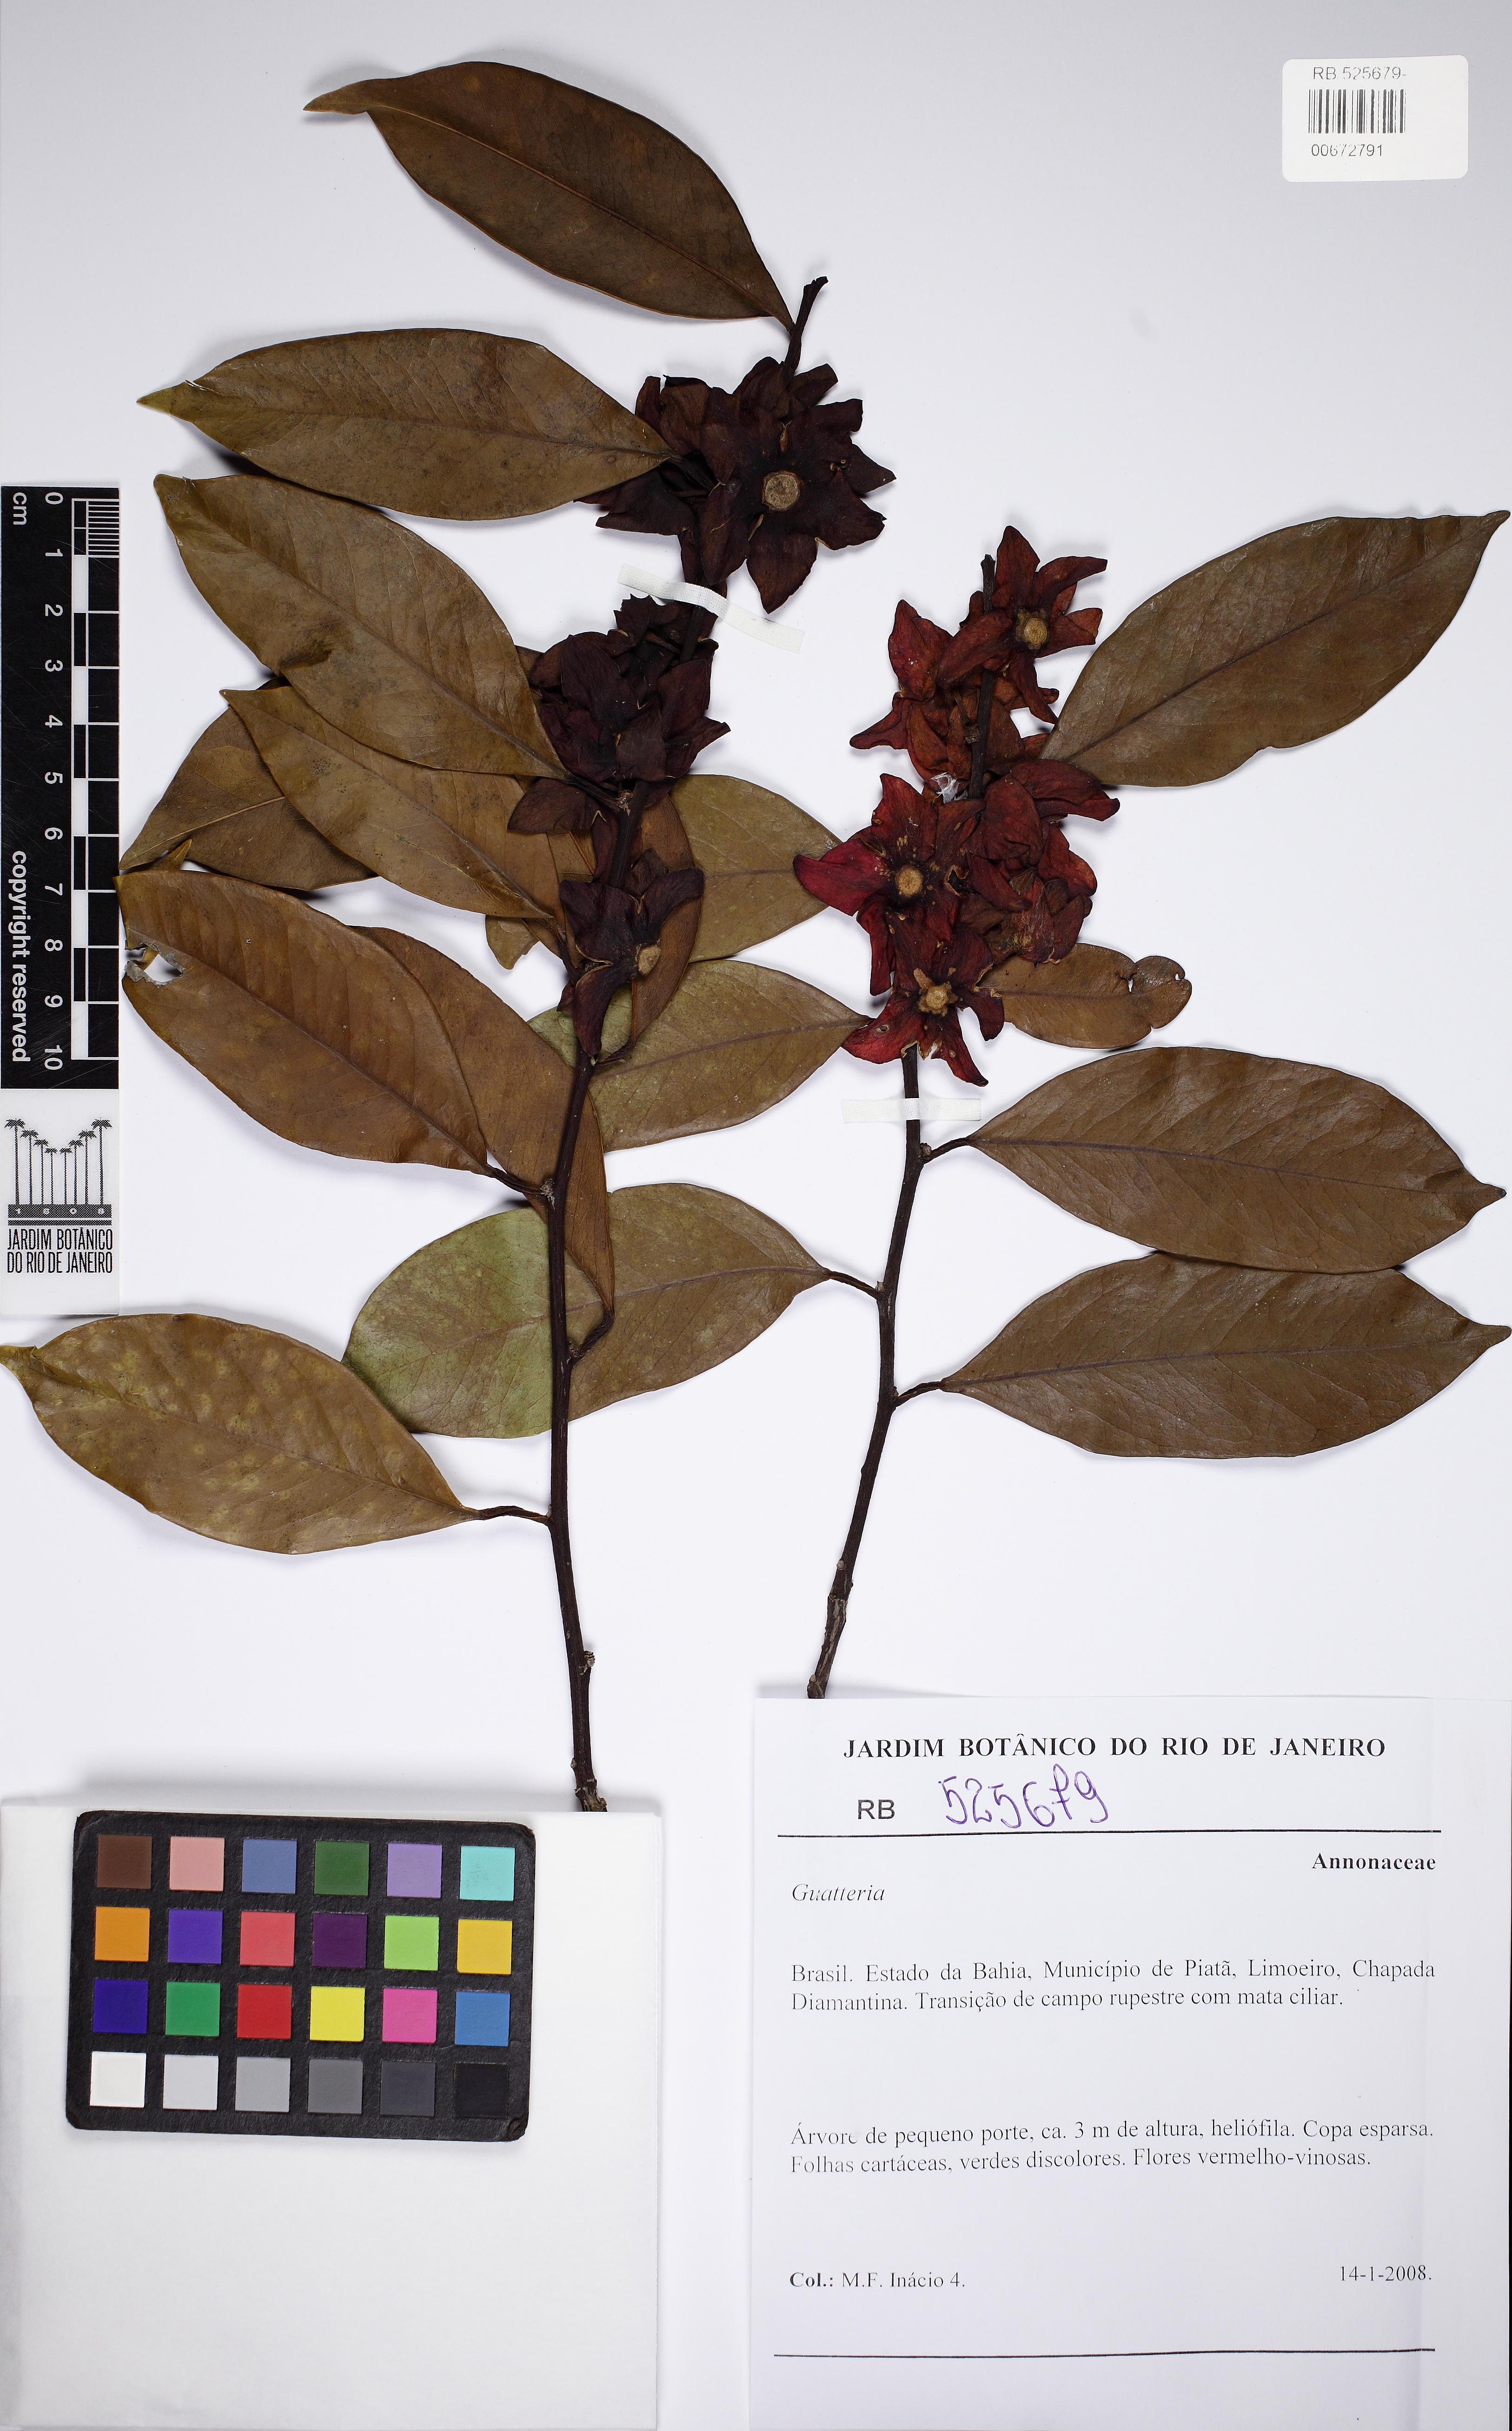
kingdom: Plantae
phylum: Tracheophyta
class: Magnoliopsida
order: Santalales
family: Erythropalaceae
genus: Heisteria
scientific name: Heisteria
